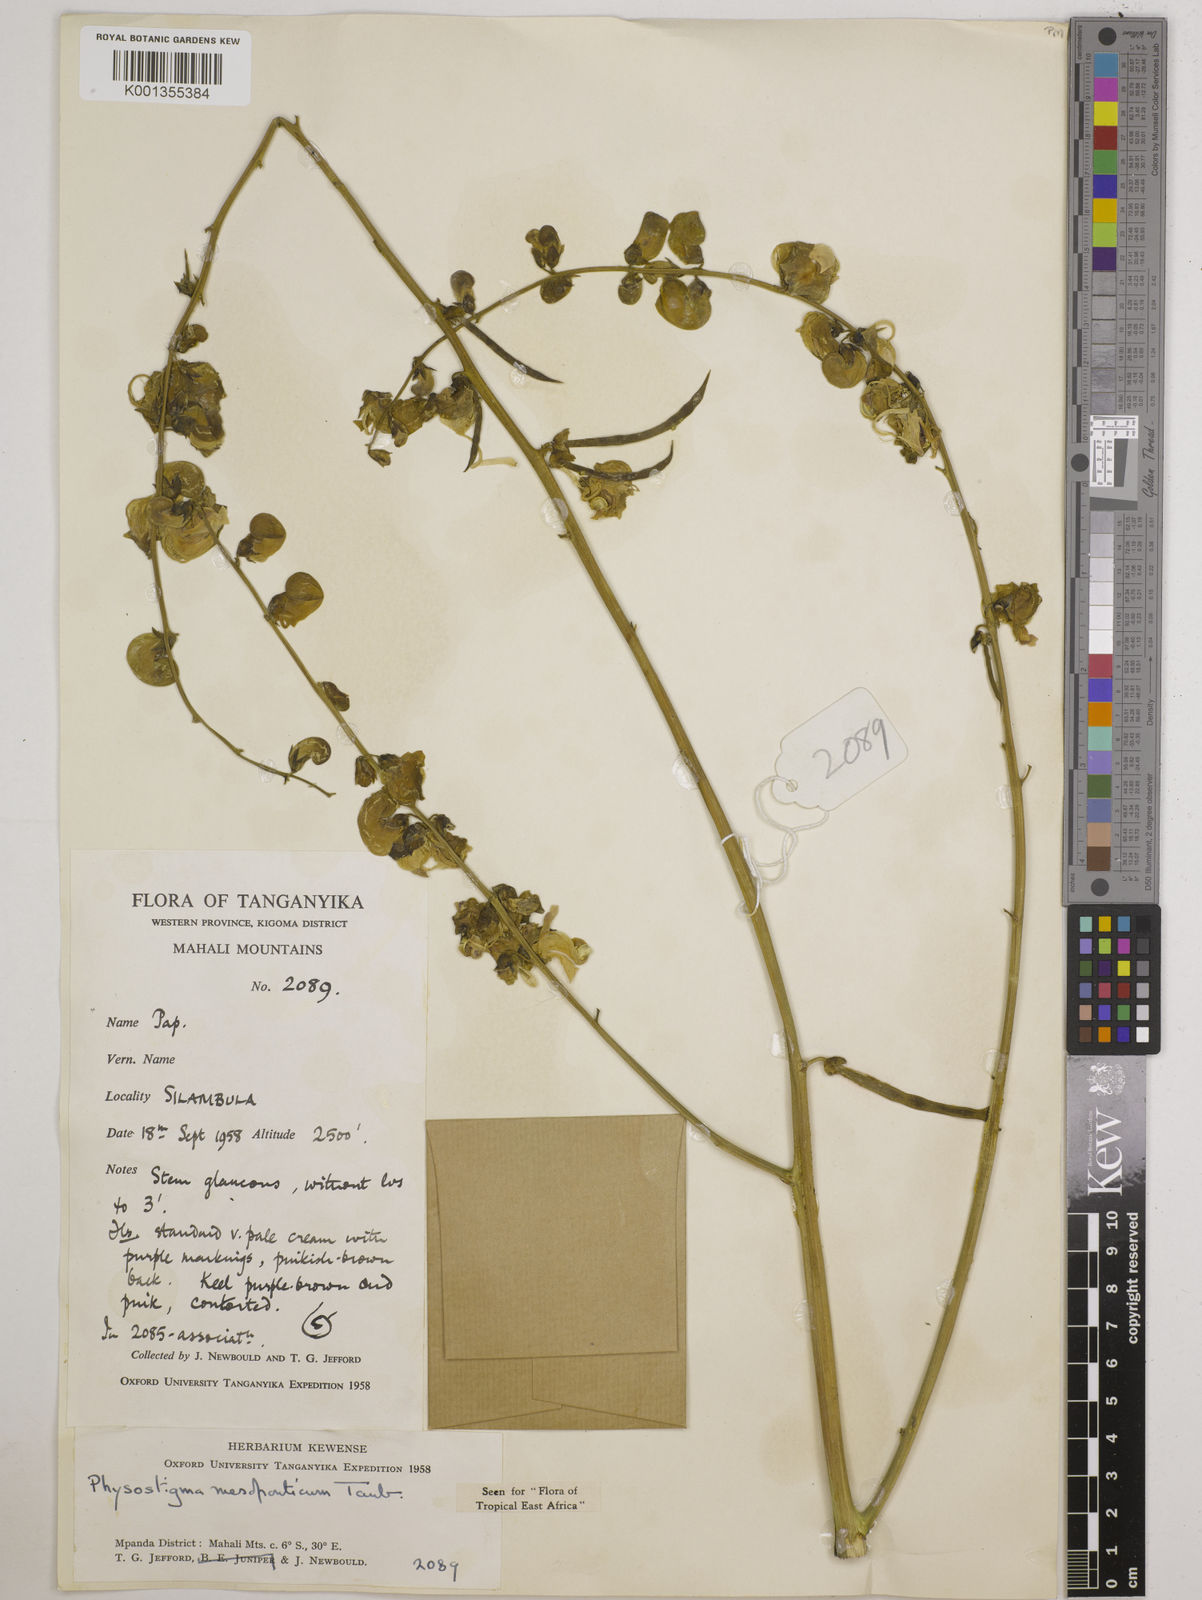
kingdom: Plantae
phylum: Tracheophyta
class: Magnoliopsida
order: Fabales
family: Fabaceae
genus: Physostigma
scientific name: Physostigma mesoponticum
